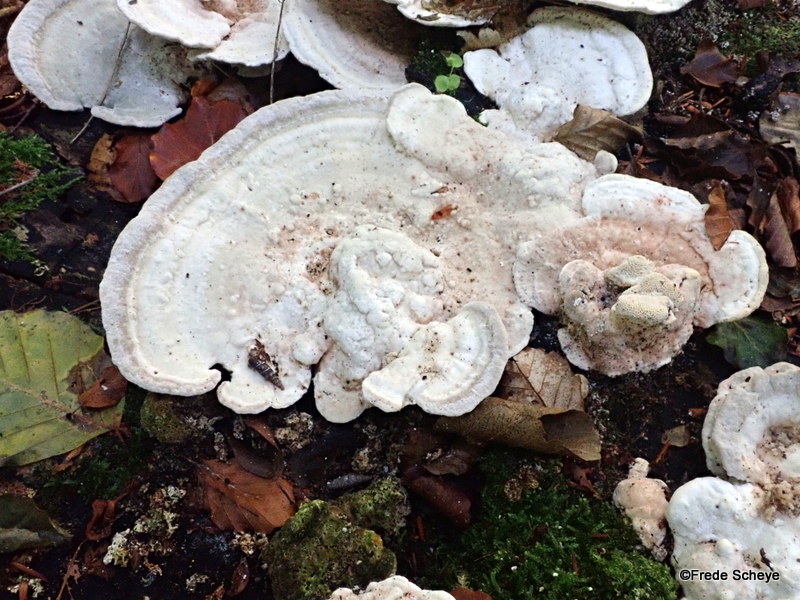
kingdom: Fungi
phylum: Basidiomycota
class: Agaricomycetes
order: Polyporales
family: Polyporaceae
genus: Trametes
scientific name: Trametes gibbosa
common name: puklet læderporesvamp
